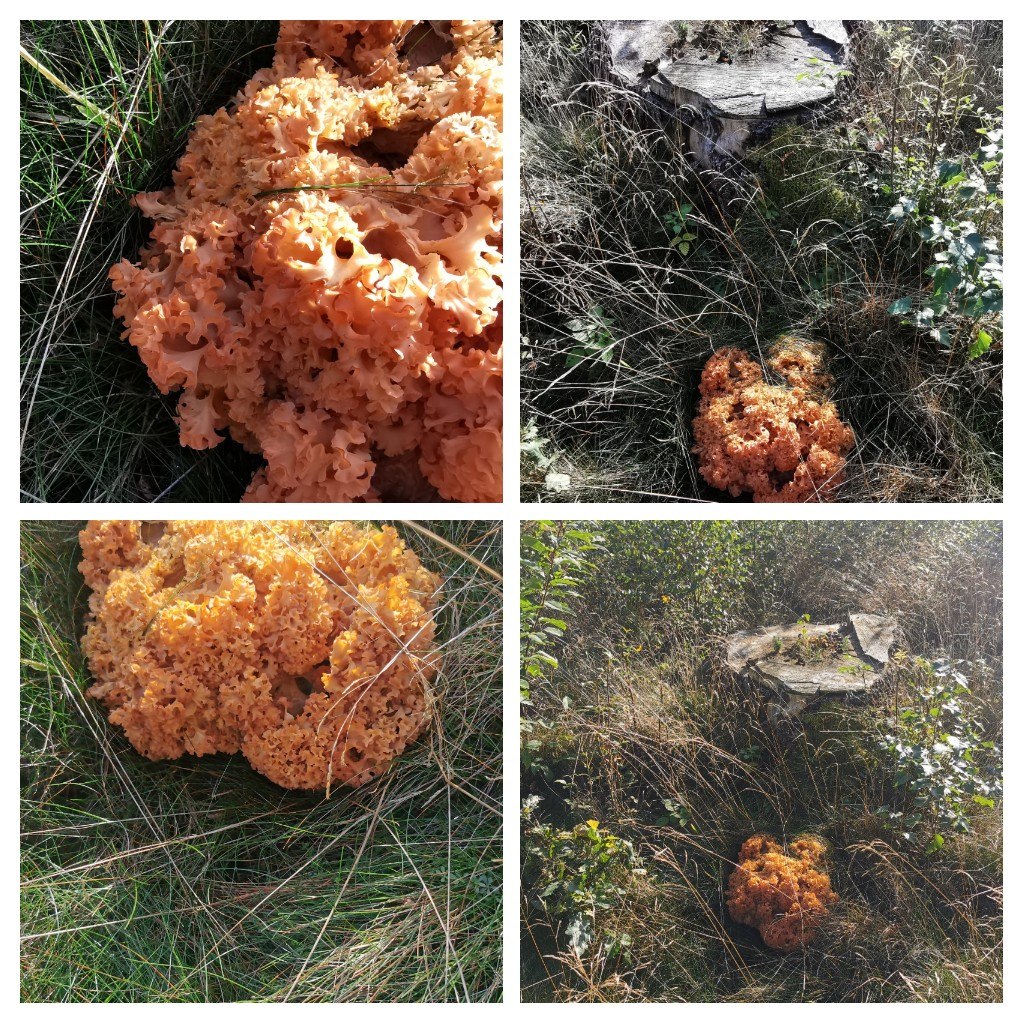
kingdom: Fungi
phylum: Basidiomycota
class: Agaricomycetes
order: Polyporales
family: Sparassidaceae
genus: Sparassis
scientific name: Sparassis crispa
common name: kruset blomkålssvamp
